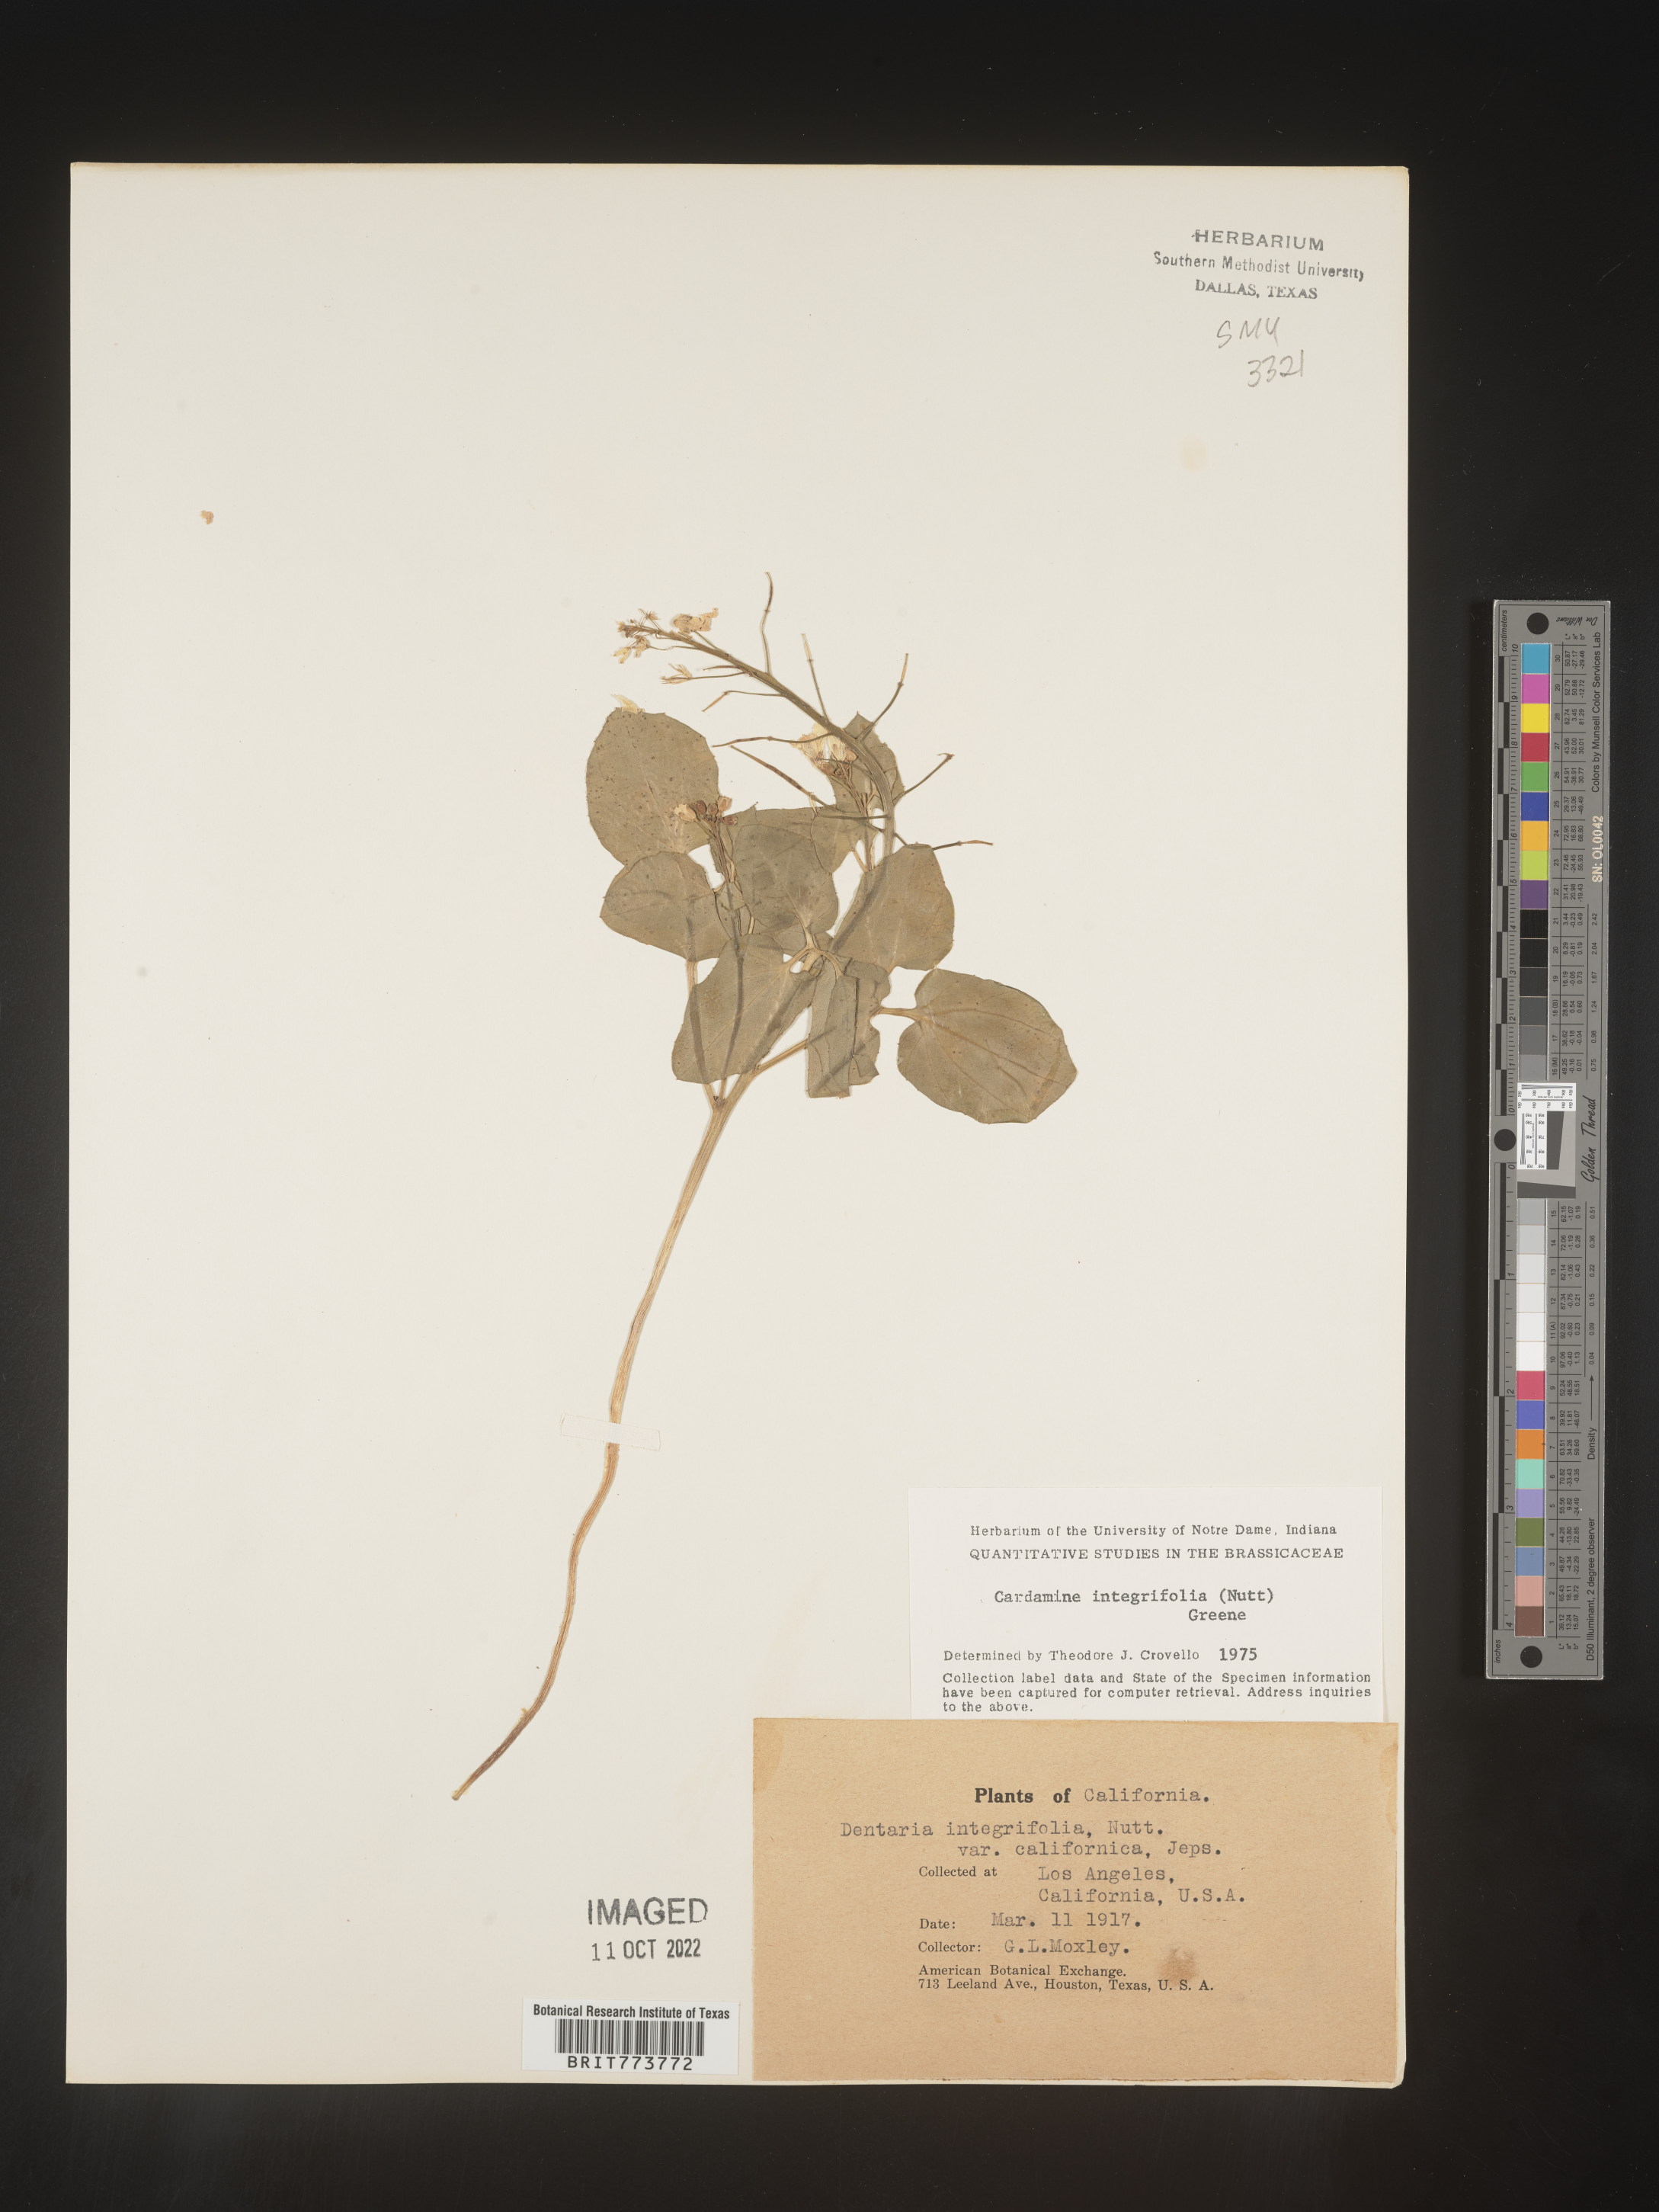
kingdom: Plantae
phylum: Tracheophyta
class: Magnoliopsida
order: Brassicales
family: Brassicaceae
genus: Cardamine
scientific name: Cardamine bellidifolia
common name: Alpine bittercress
